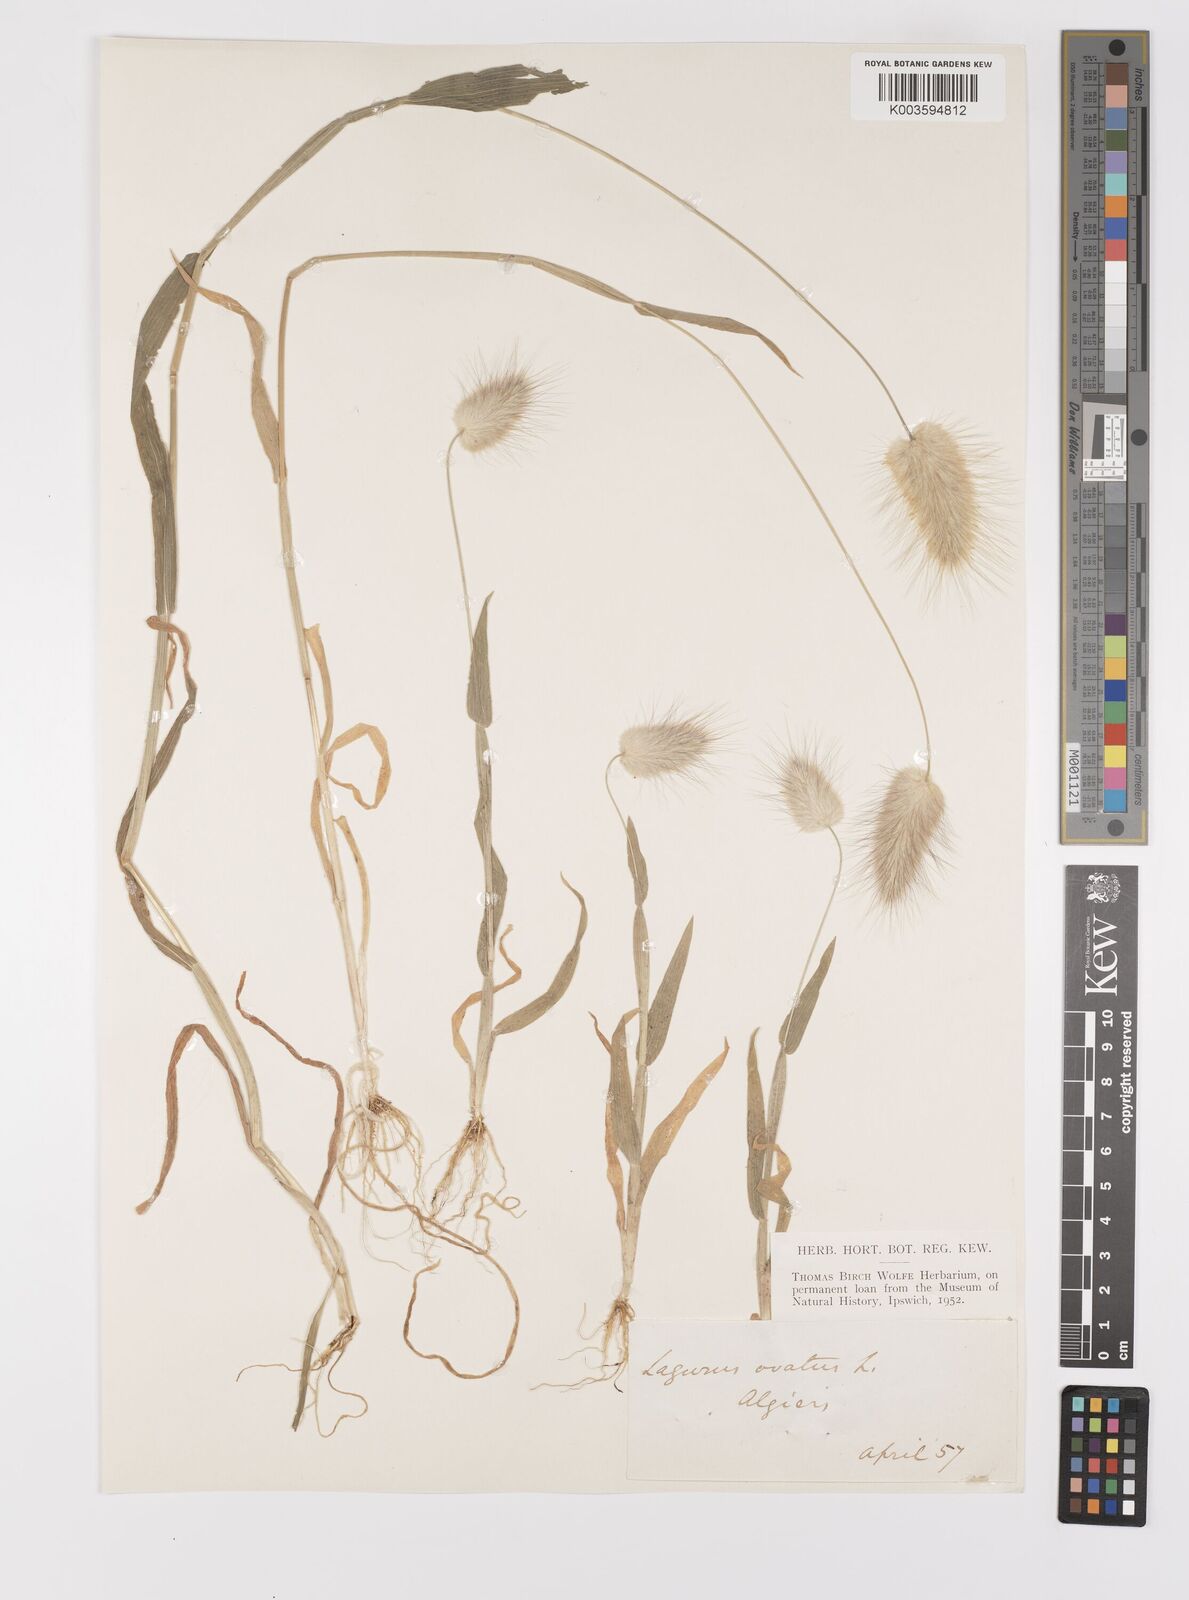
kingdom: Plantae
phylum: Tracheophyta
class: Liliopsida
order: Poales
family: Poaceae
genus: Lagurus
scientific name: Lagurus ovatus
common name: Hare's-tail
